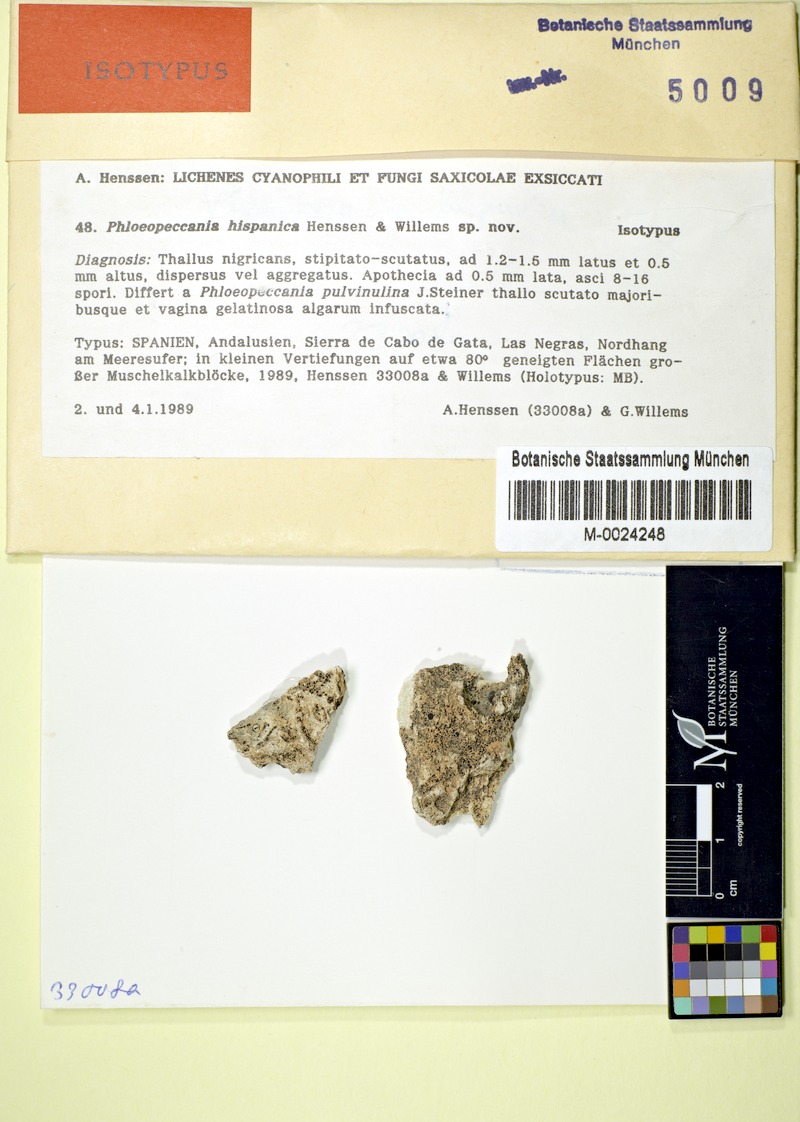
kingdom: Fungi
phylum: Ascomycota
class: Lichinomycetes
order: Lichinales
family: Lichinaceae
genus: Phloeopeccania
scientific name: Phloeopeccania hispanica
